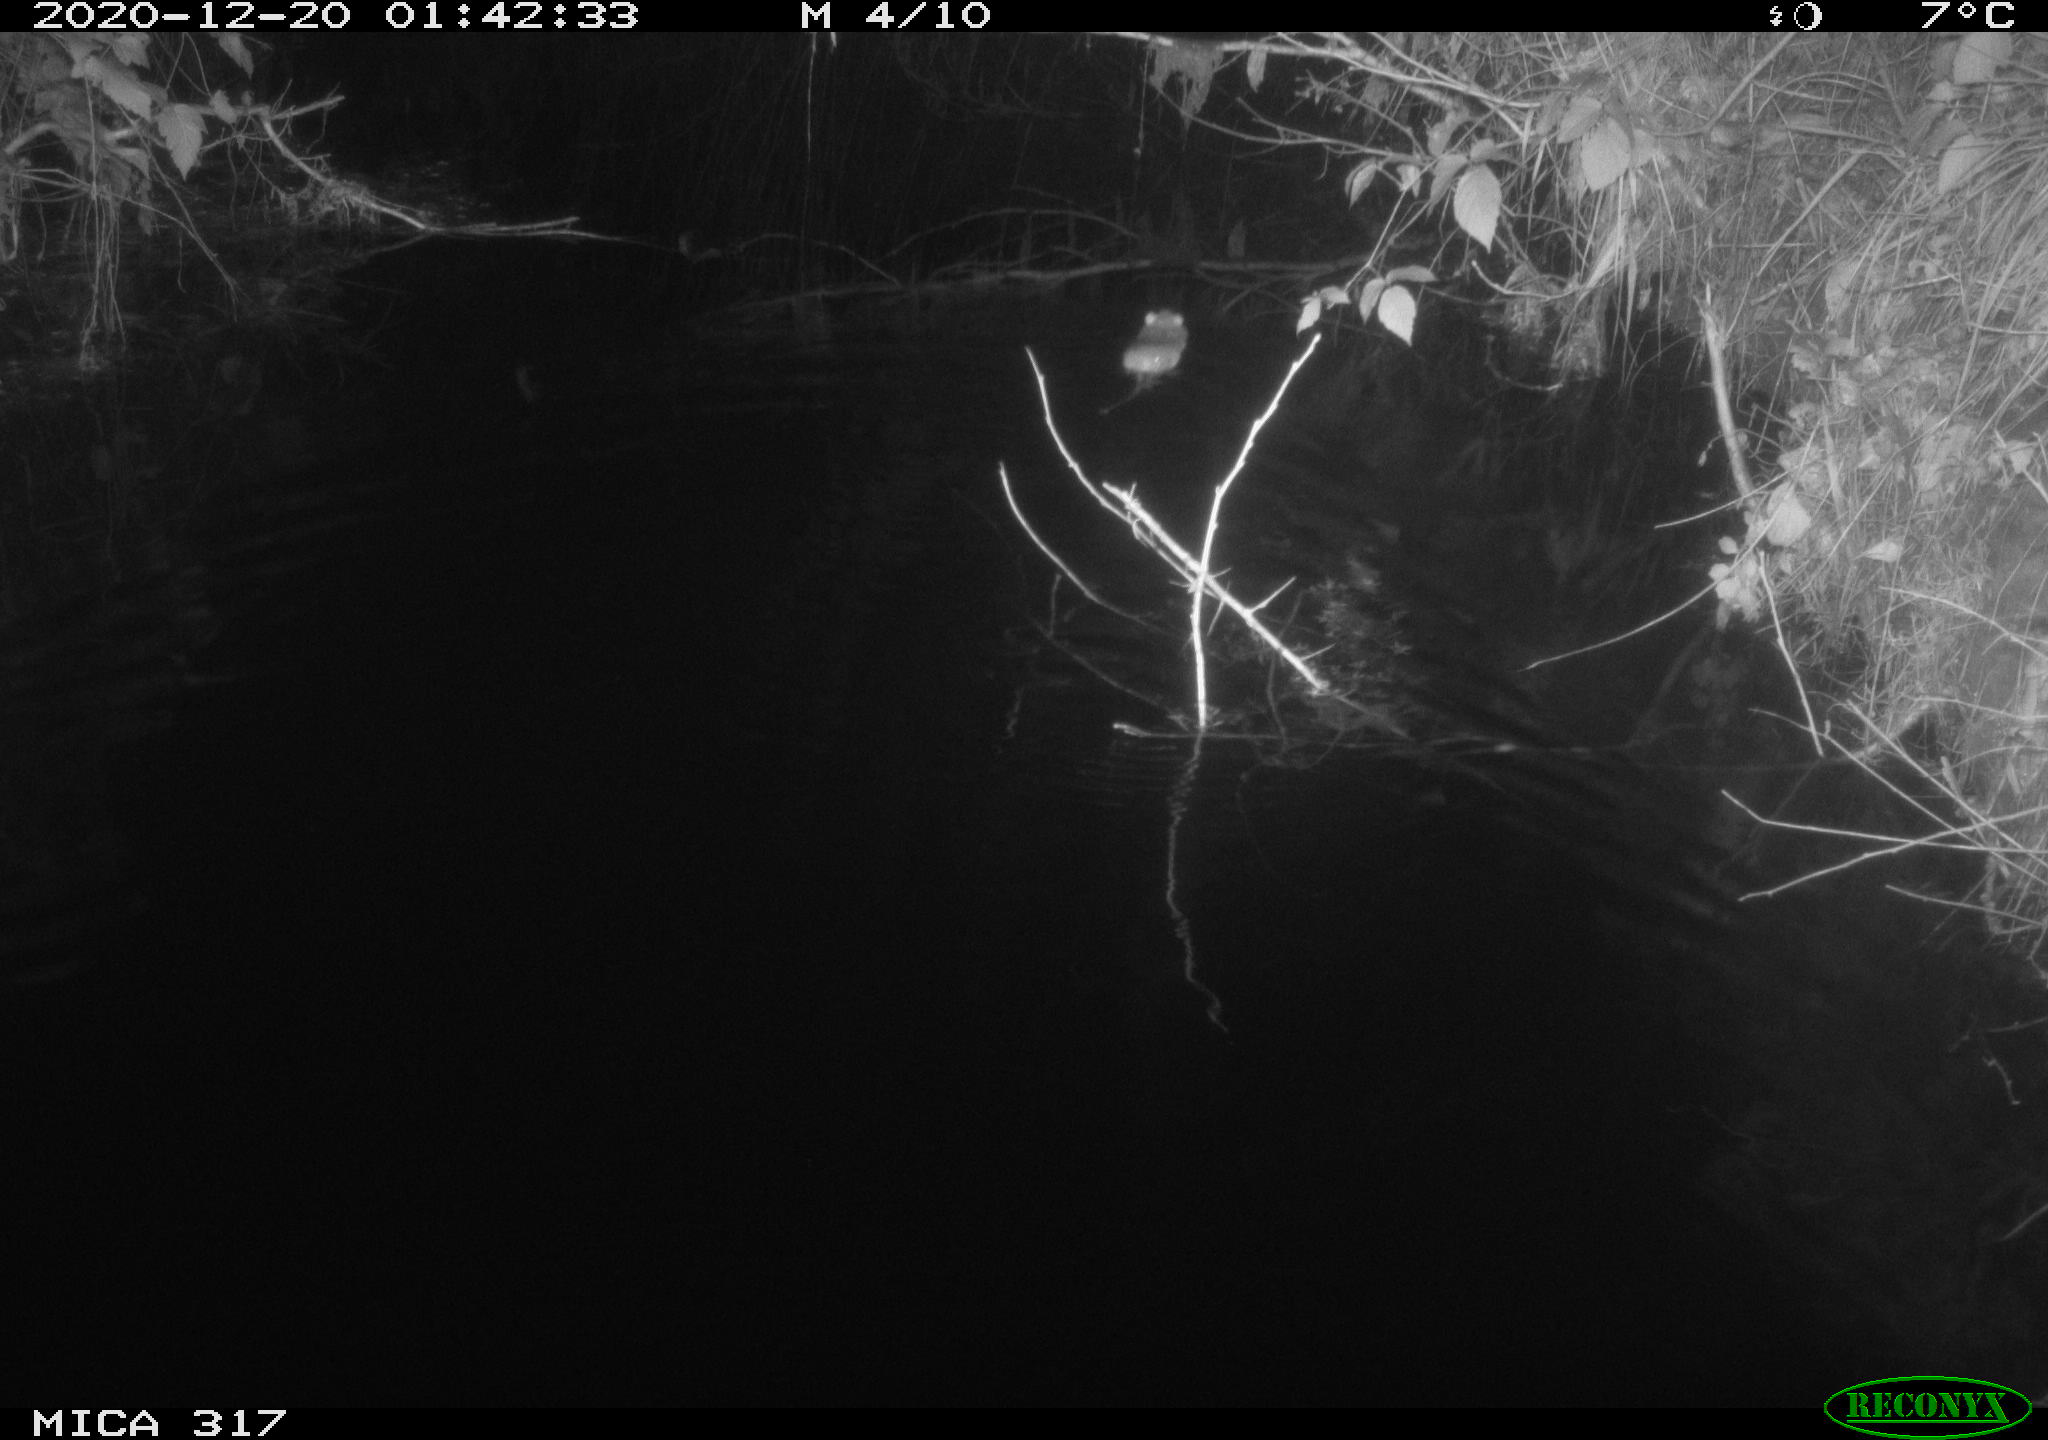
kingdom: Animalia
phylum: Chordata
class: Mammalia
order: Rodentia
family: Muridae
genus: Rattus
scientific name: Rattus norvegicus
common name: Brown rat
